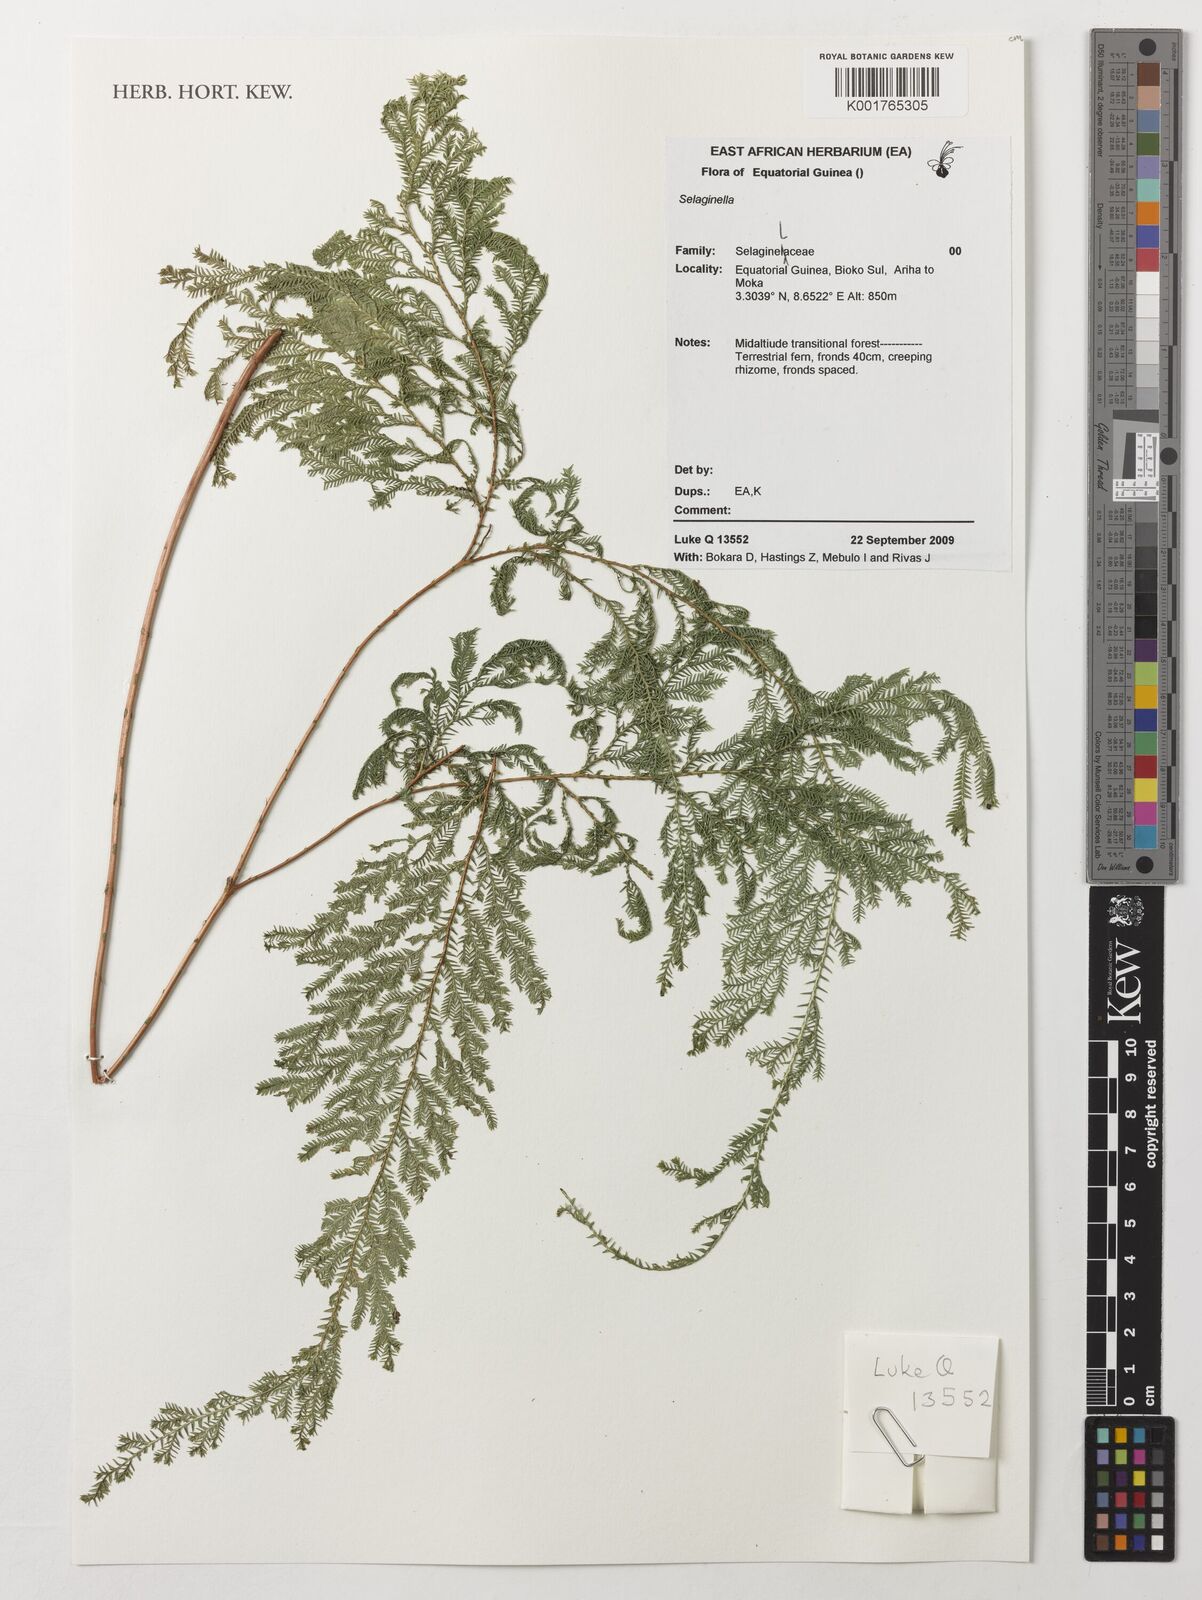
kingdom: Plantae
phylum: Tracheophyta
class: Lycopodiopsida
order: Selaginellales
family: Selaginellaceae
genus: Selaginella
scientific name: Selaginella
